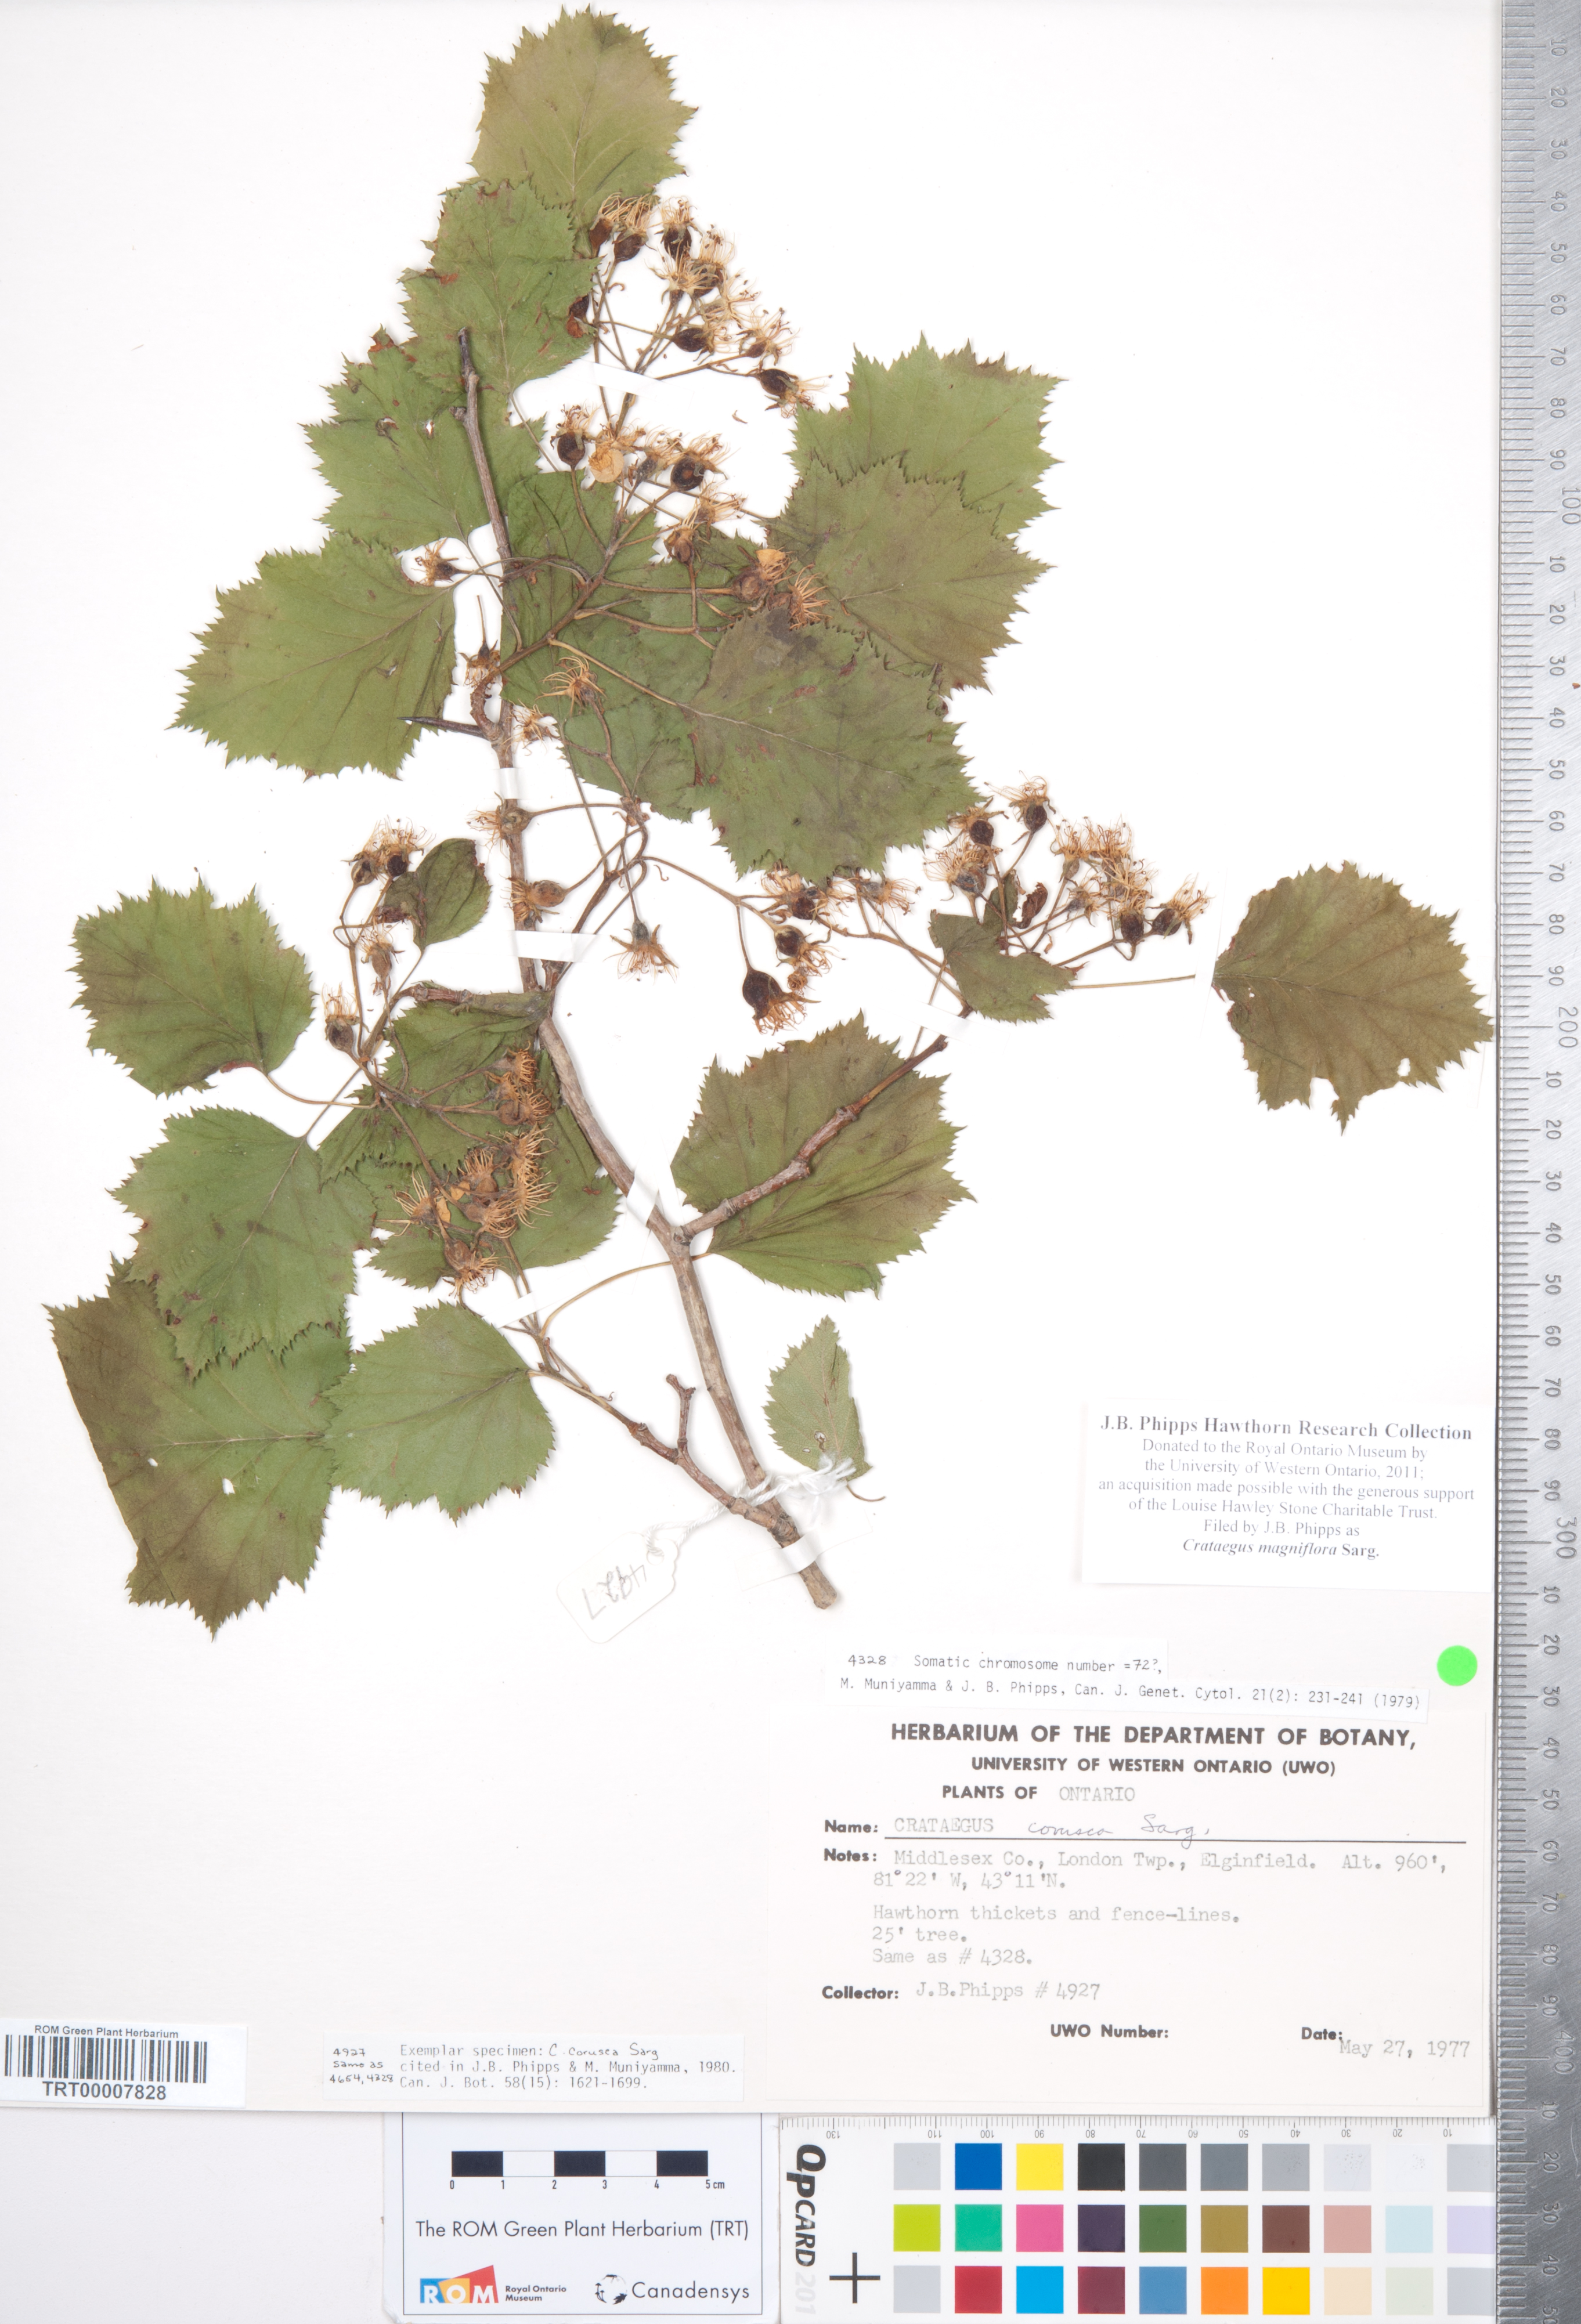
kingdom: Plantae
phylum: Tracheophyta
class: Magnoliopsida
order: Rosales
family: Rosaceae
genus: Crataegus
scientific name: Crataegus magniflora
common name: Gleaming hawthorn
